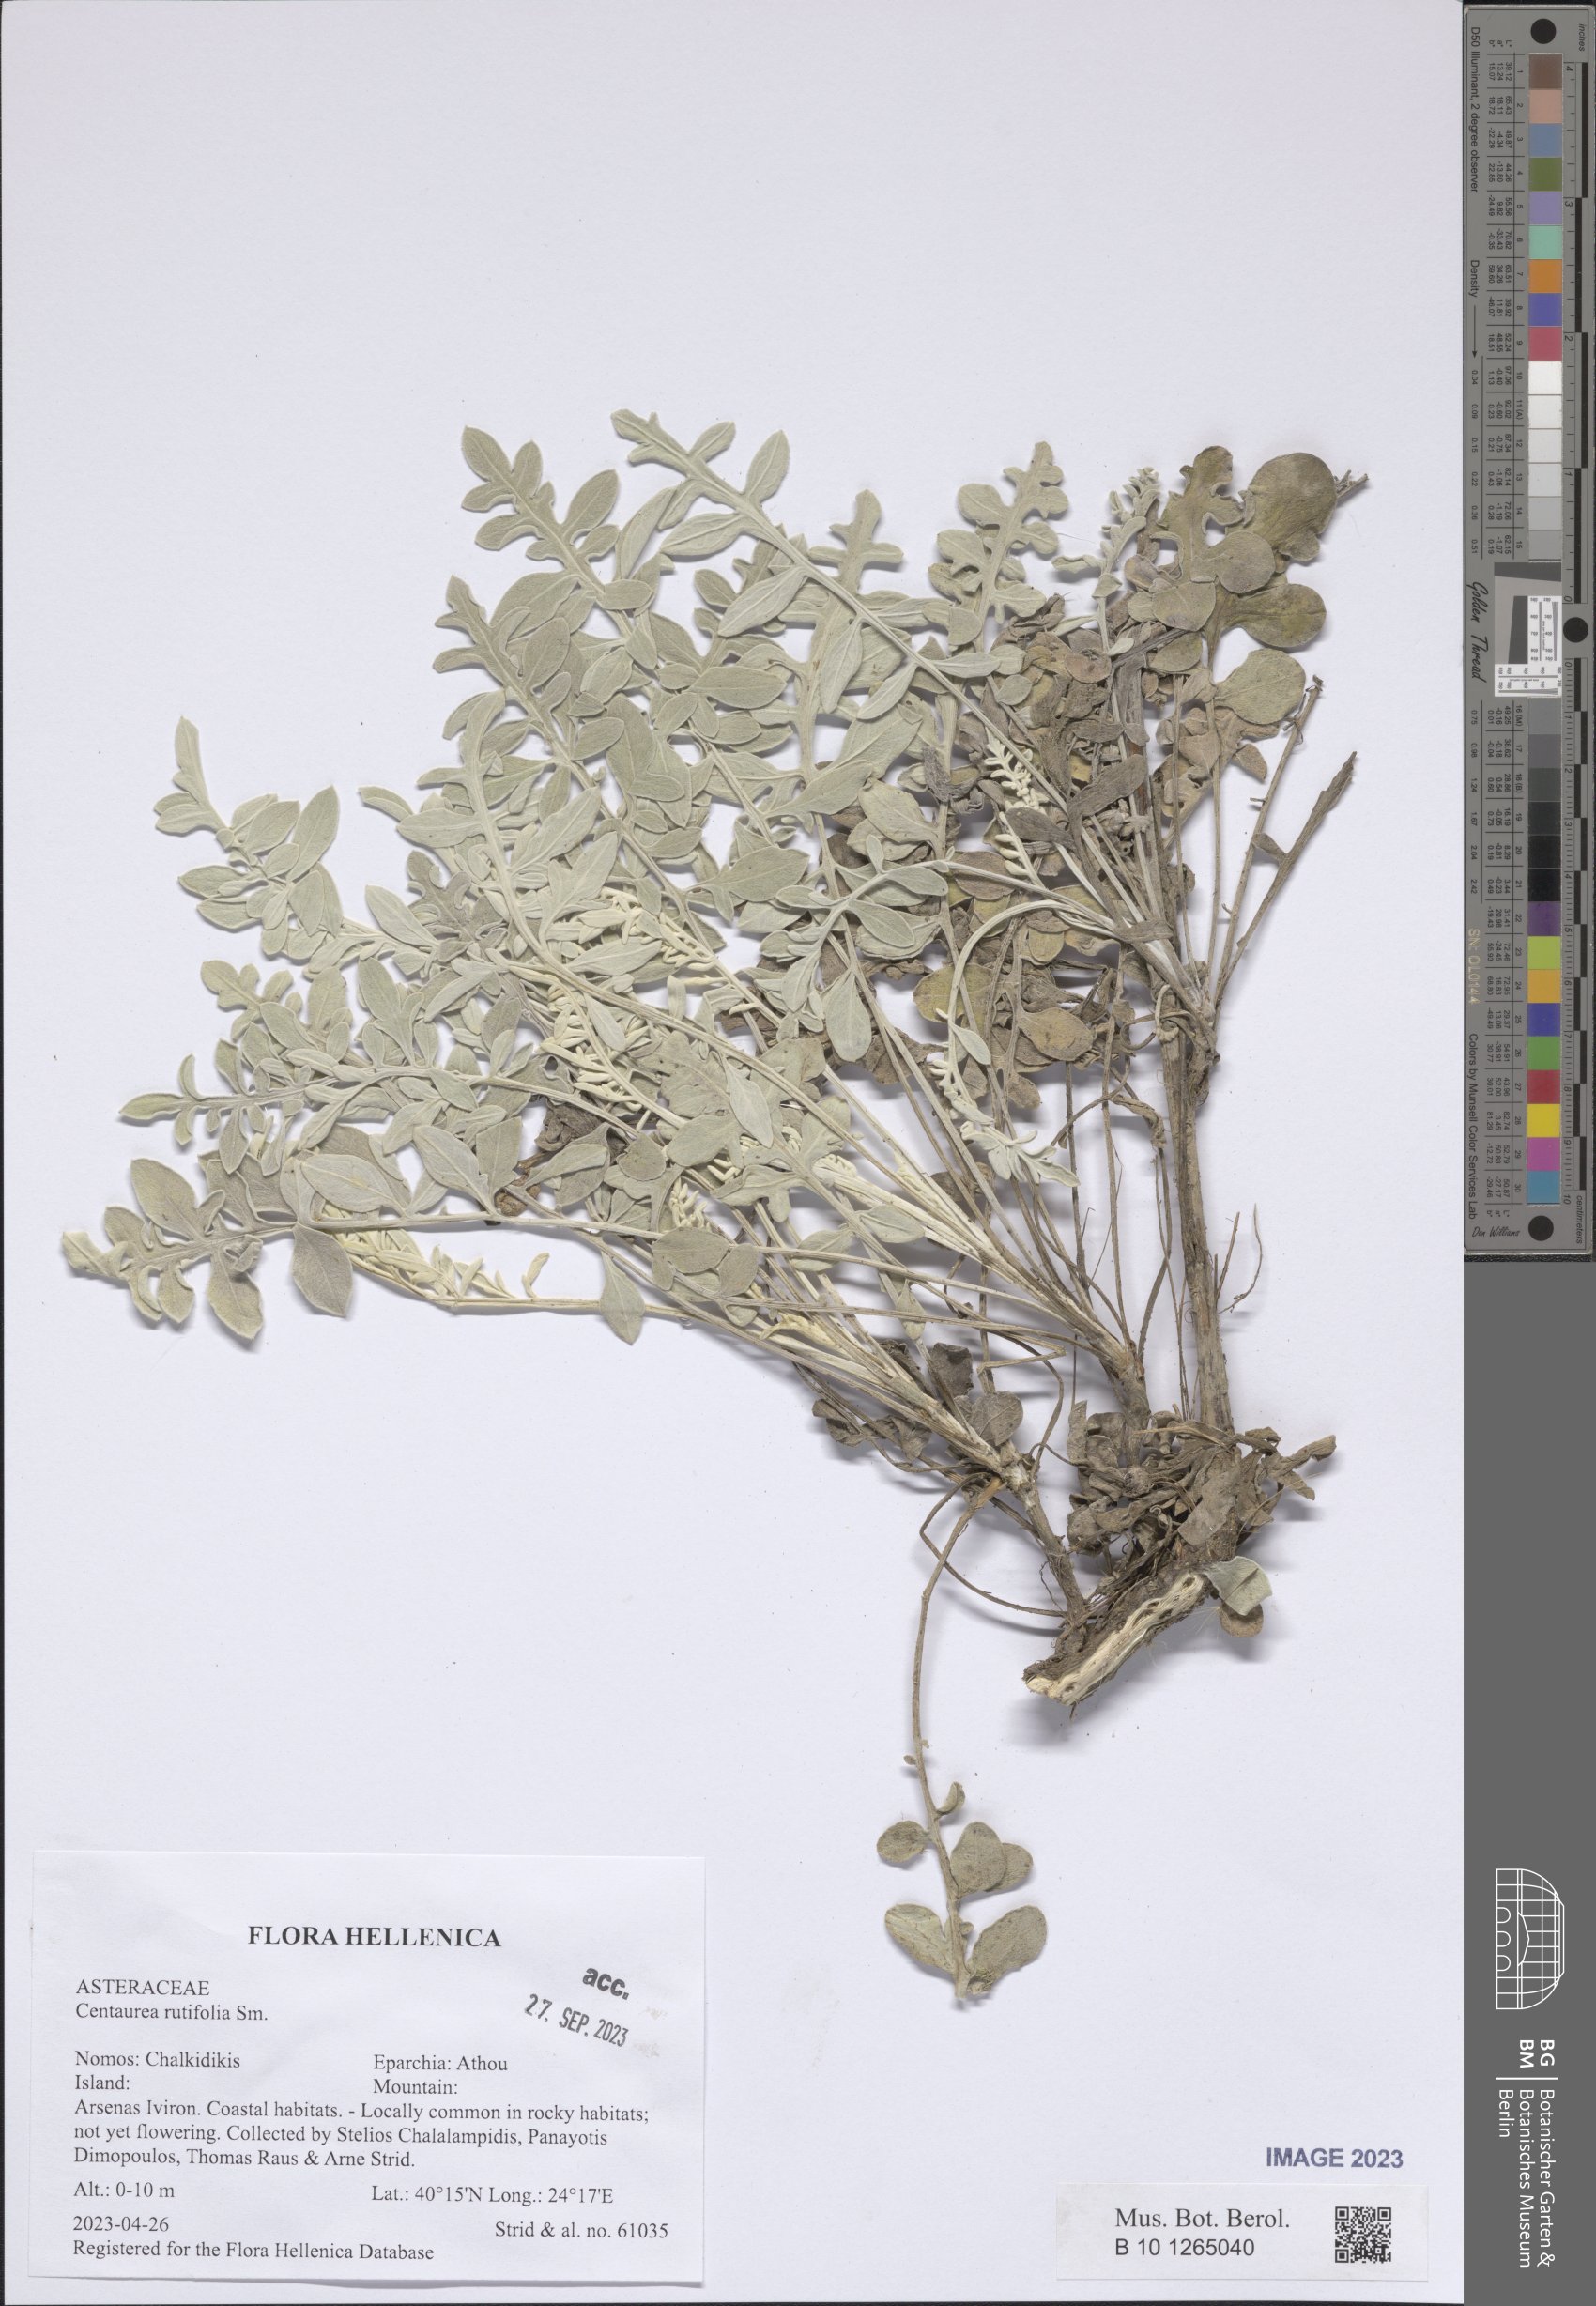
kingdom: Plantae
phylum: Tracheophyta
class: Magnoliopsida
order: Asterales
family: Asteraceae
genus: Centaurea
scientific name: Centaurea rutifolia
